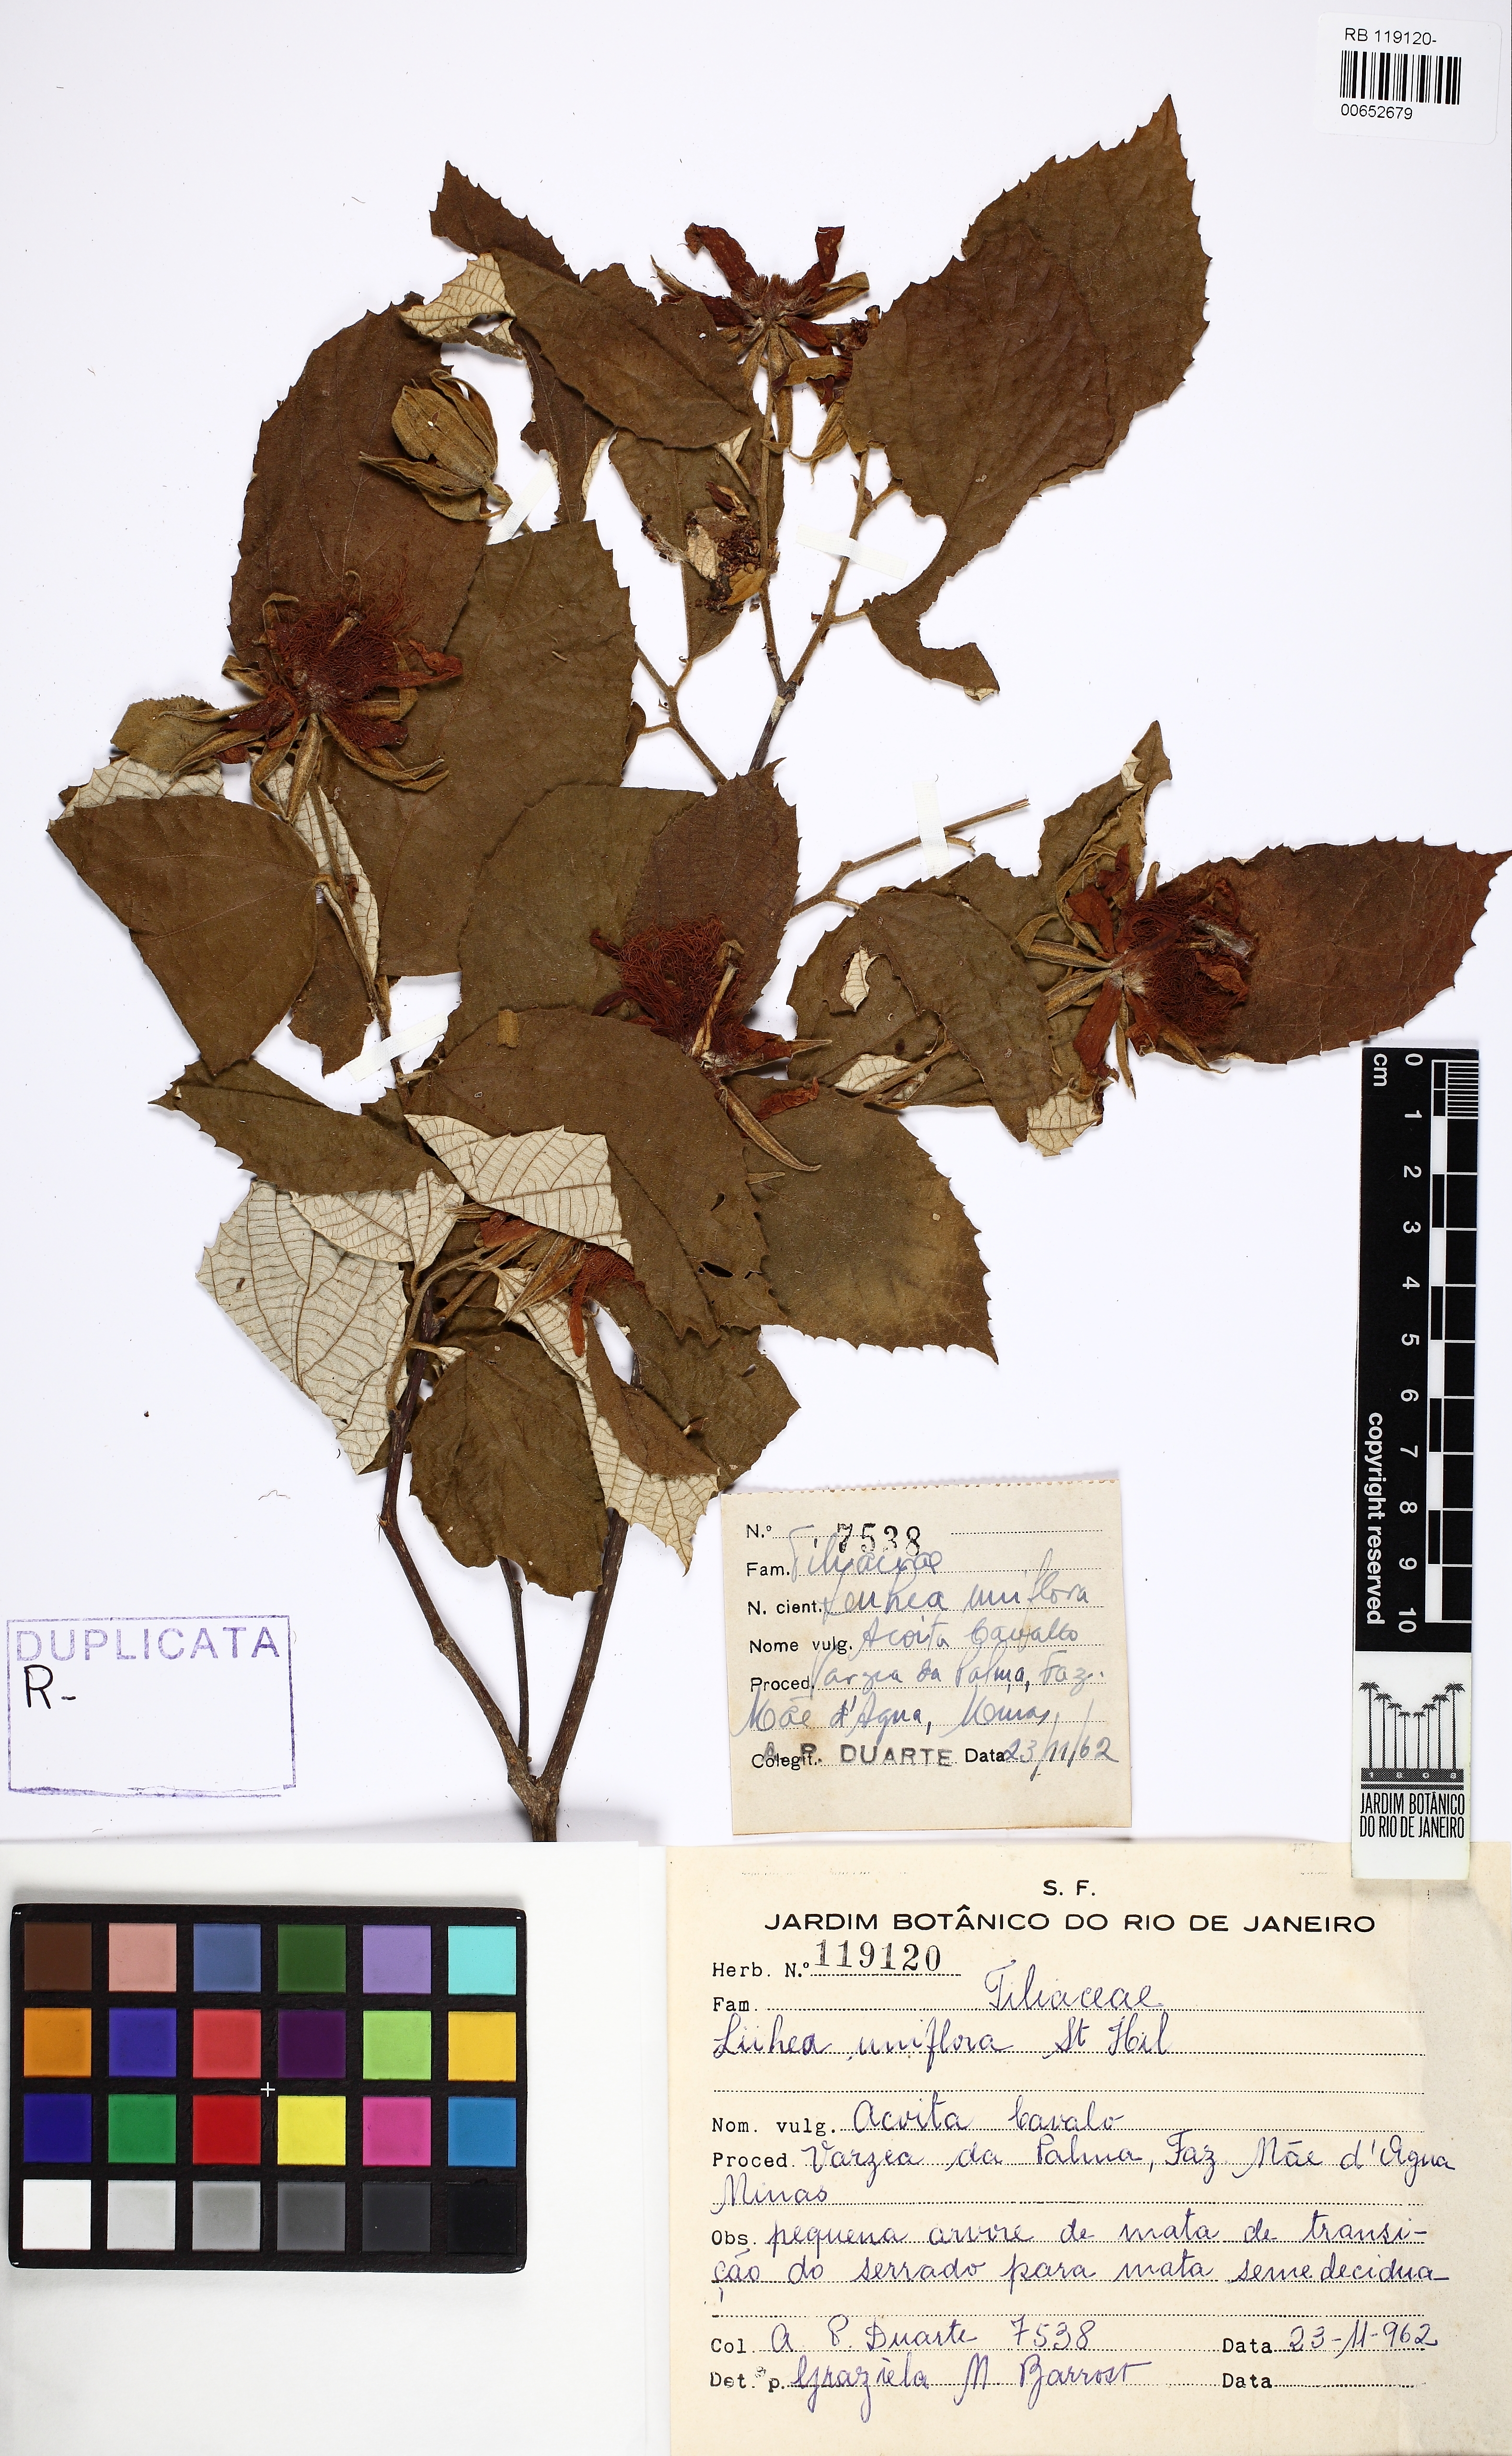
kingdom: Plantae
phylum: Tracheophyta
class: Magnoliopsida
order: Malvales
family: Malvaceae
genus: Luehea
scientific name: Luehea candicans
